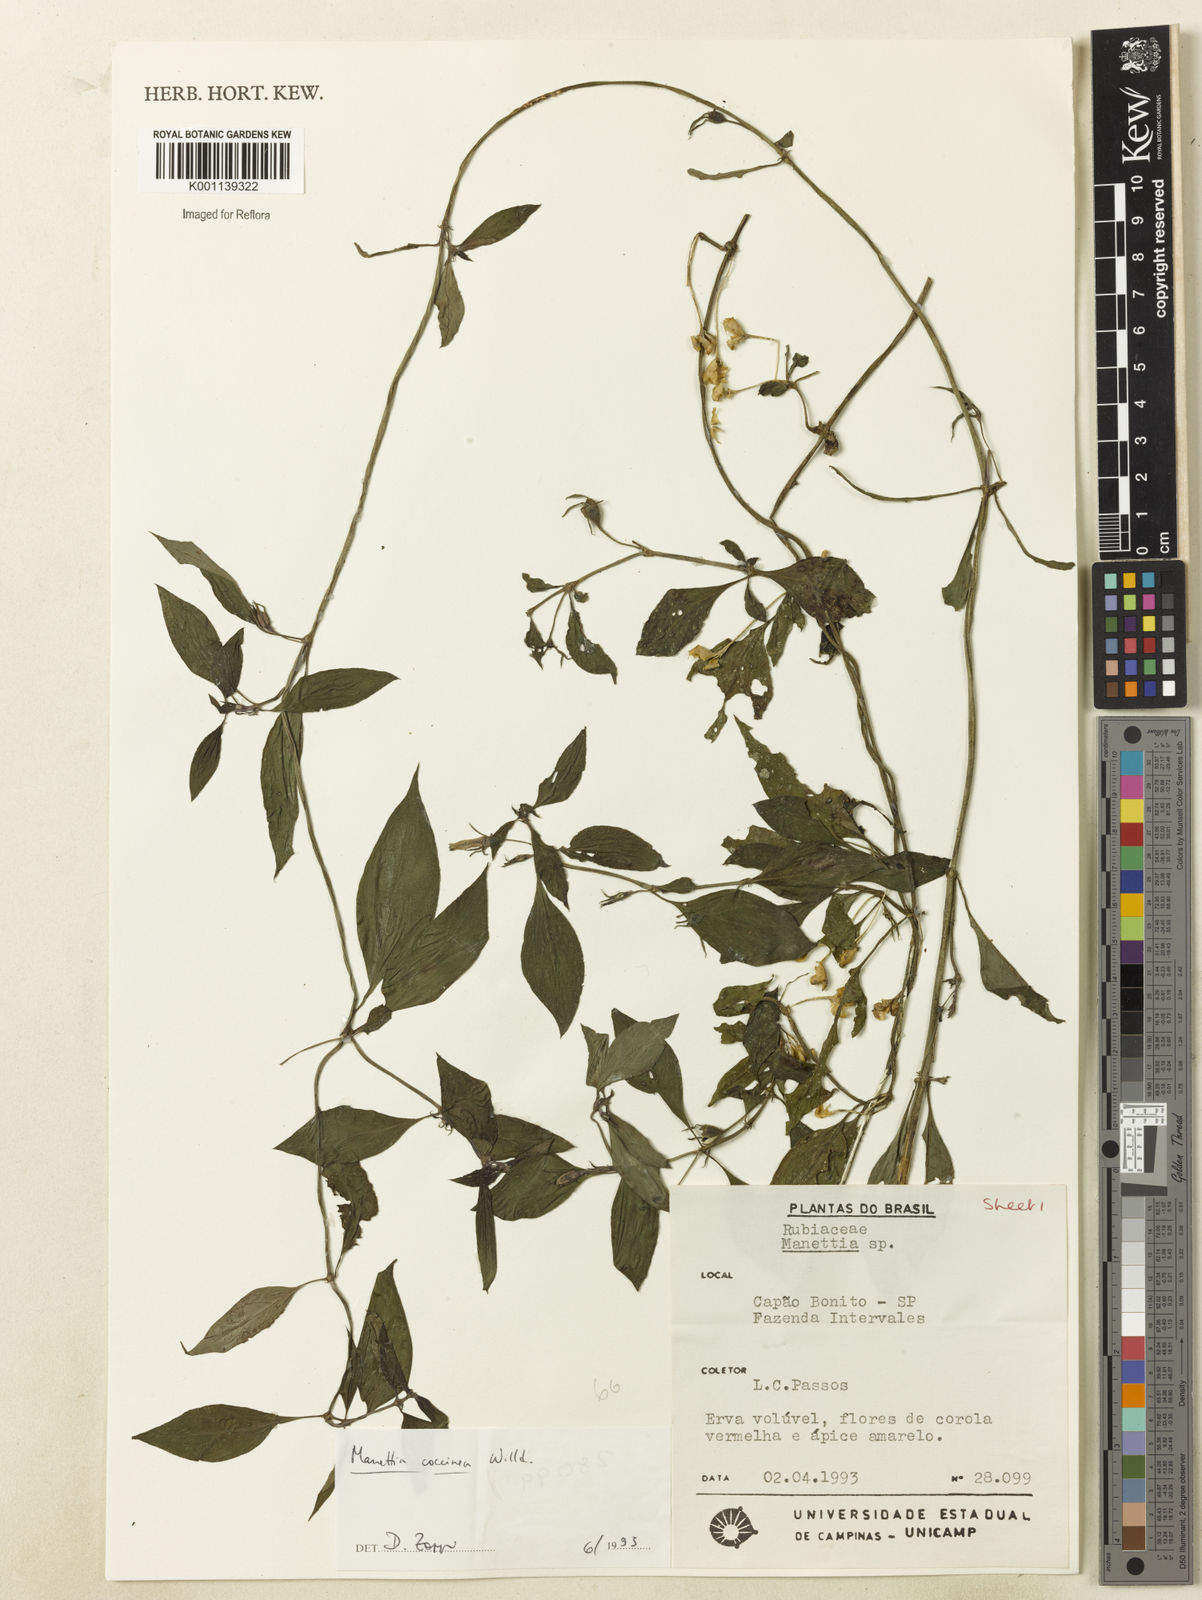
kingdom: Plantae
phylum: Tracheophyta
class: Magnoliopsida
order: Gentianales
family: Rubiaceae
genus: Manettia
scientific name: Manettia
